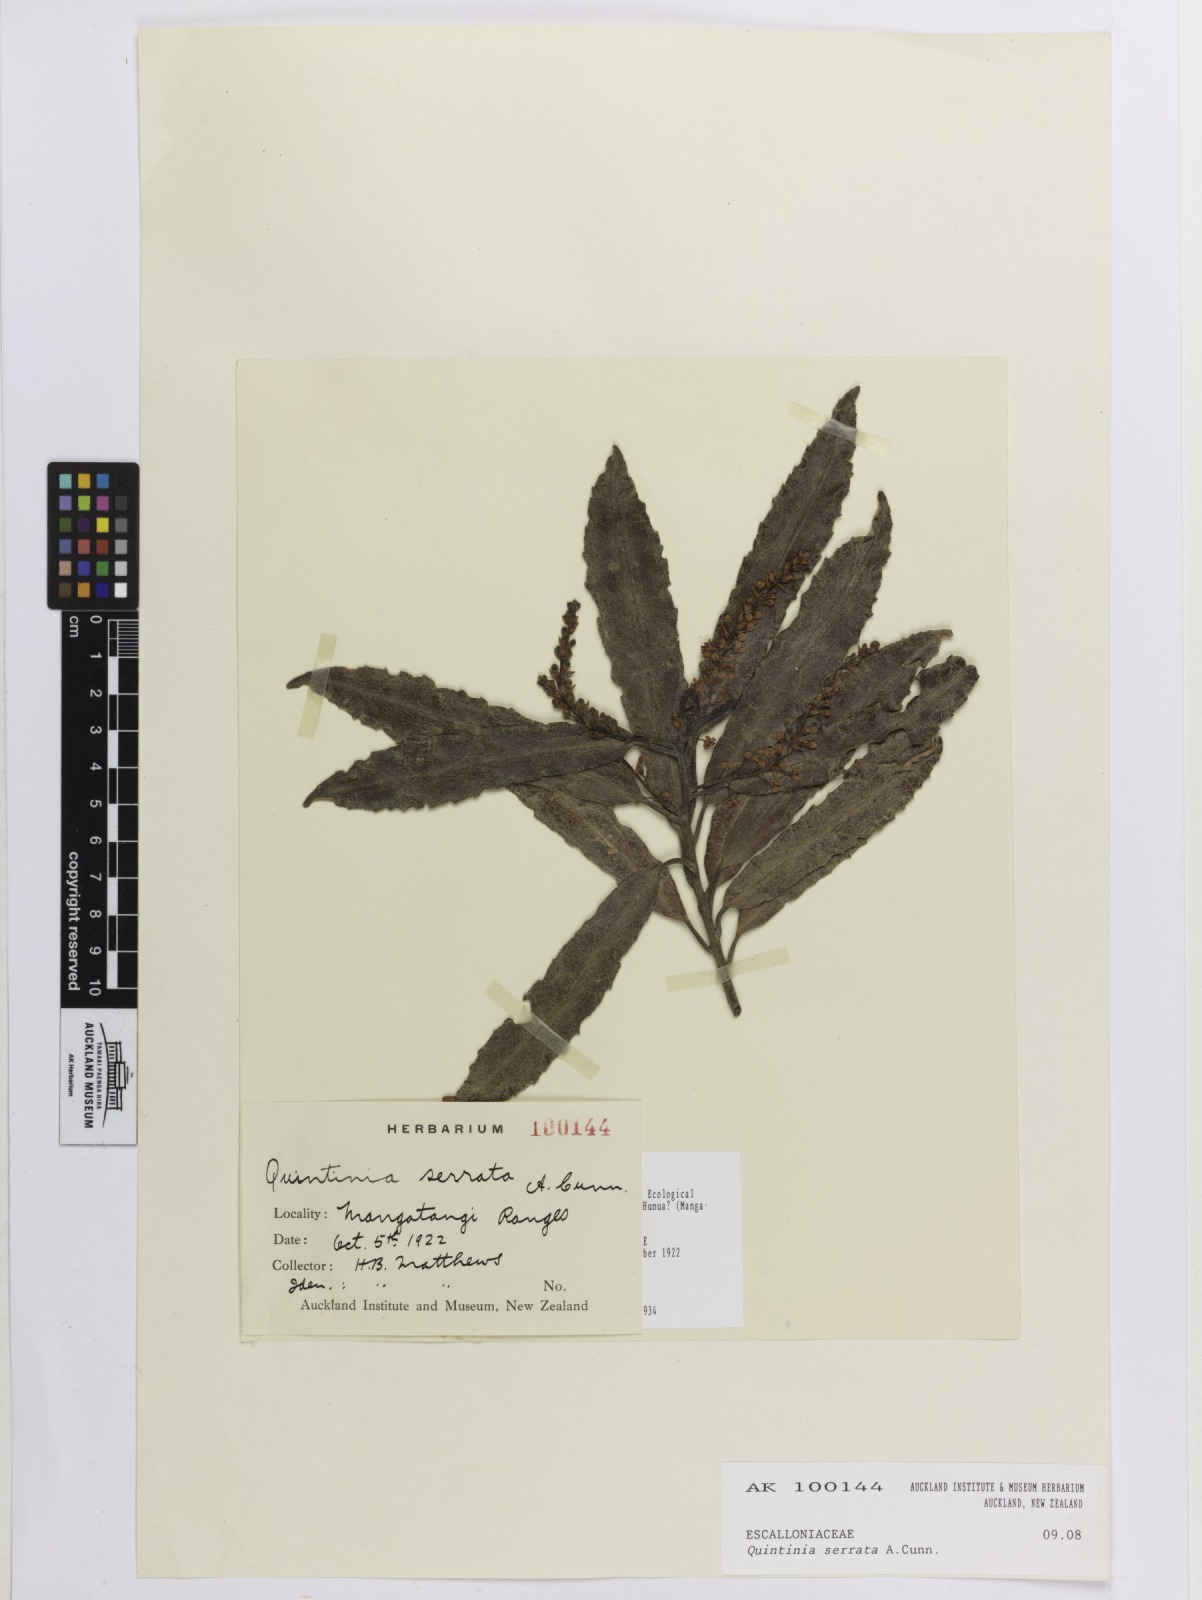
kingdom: Plantae
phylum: Tracheophyta
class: Magnoliopsida
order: Paracryphiales
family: Paracryphiaceae
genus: Quintinia
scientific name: Quintinia serrata
